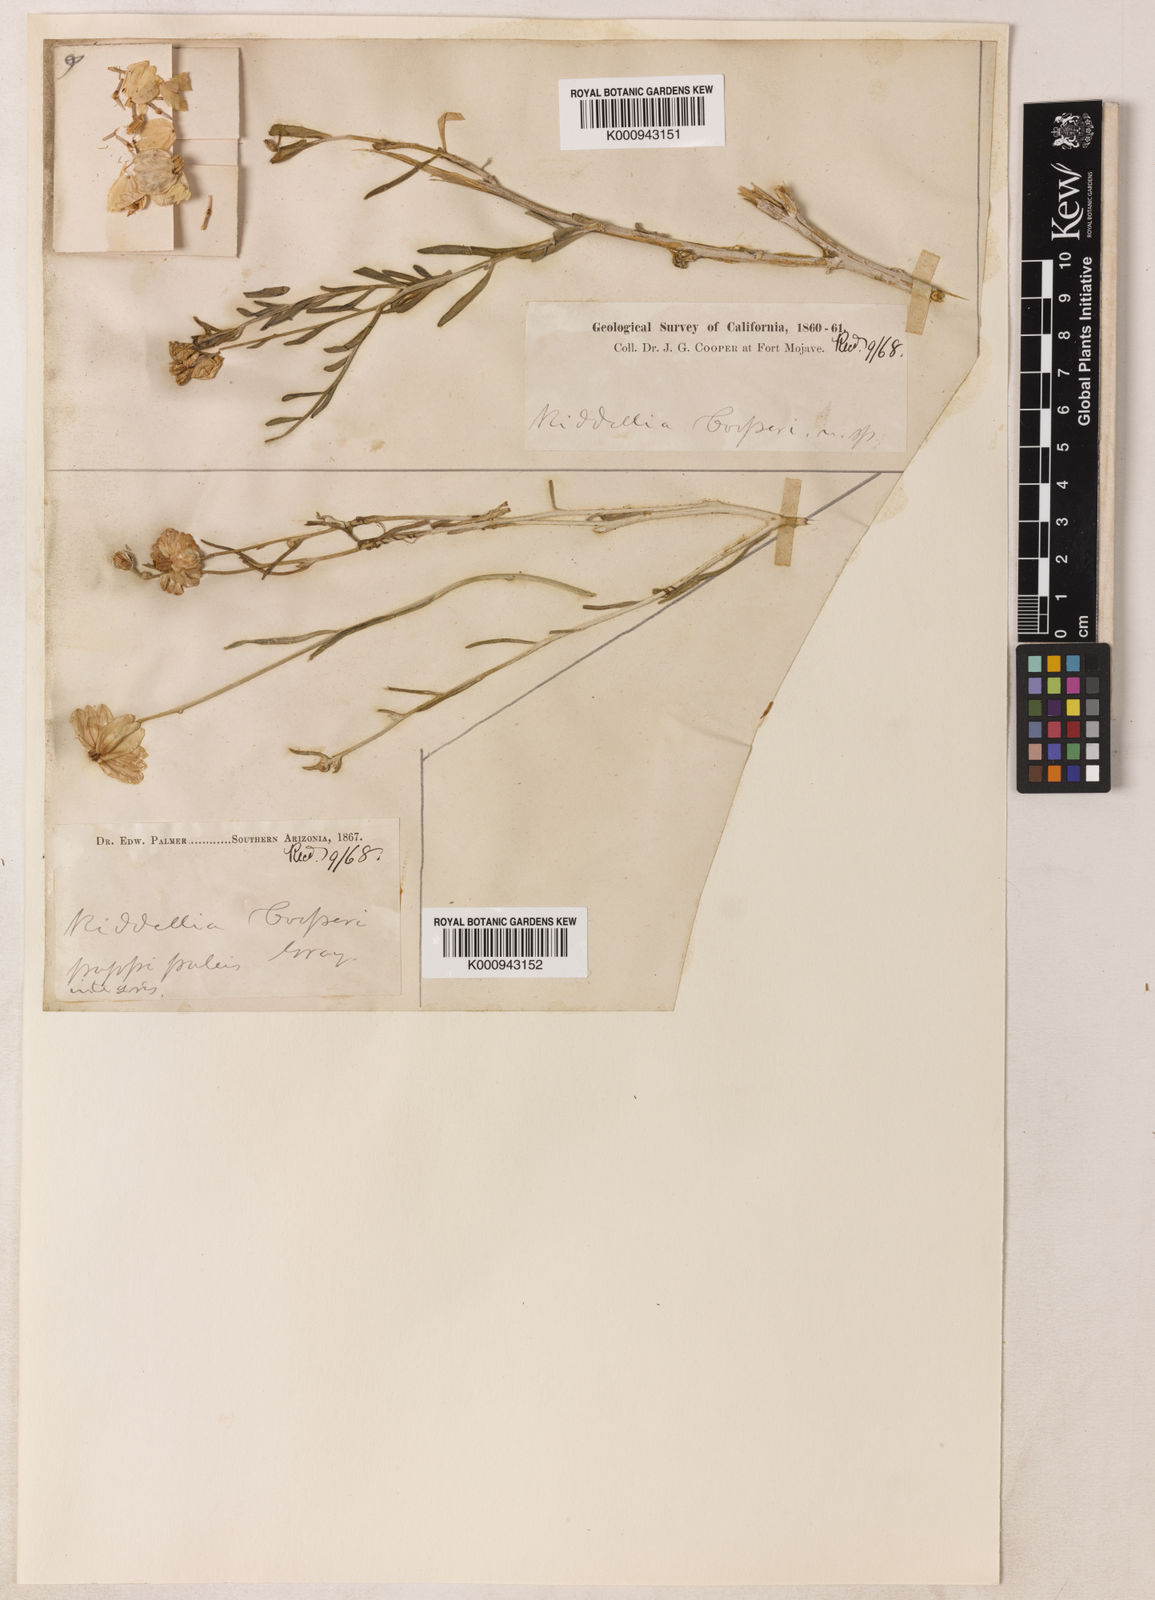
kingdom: Plantae
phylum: Tracheophyta
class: Magnoliopsida
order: Asterales
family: Asteraceae
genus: Psilostrophe
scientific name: Psilostrophe cooperi
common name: White-stem paper-flower
